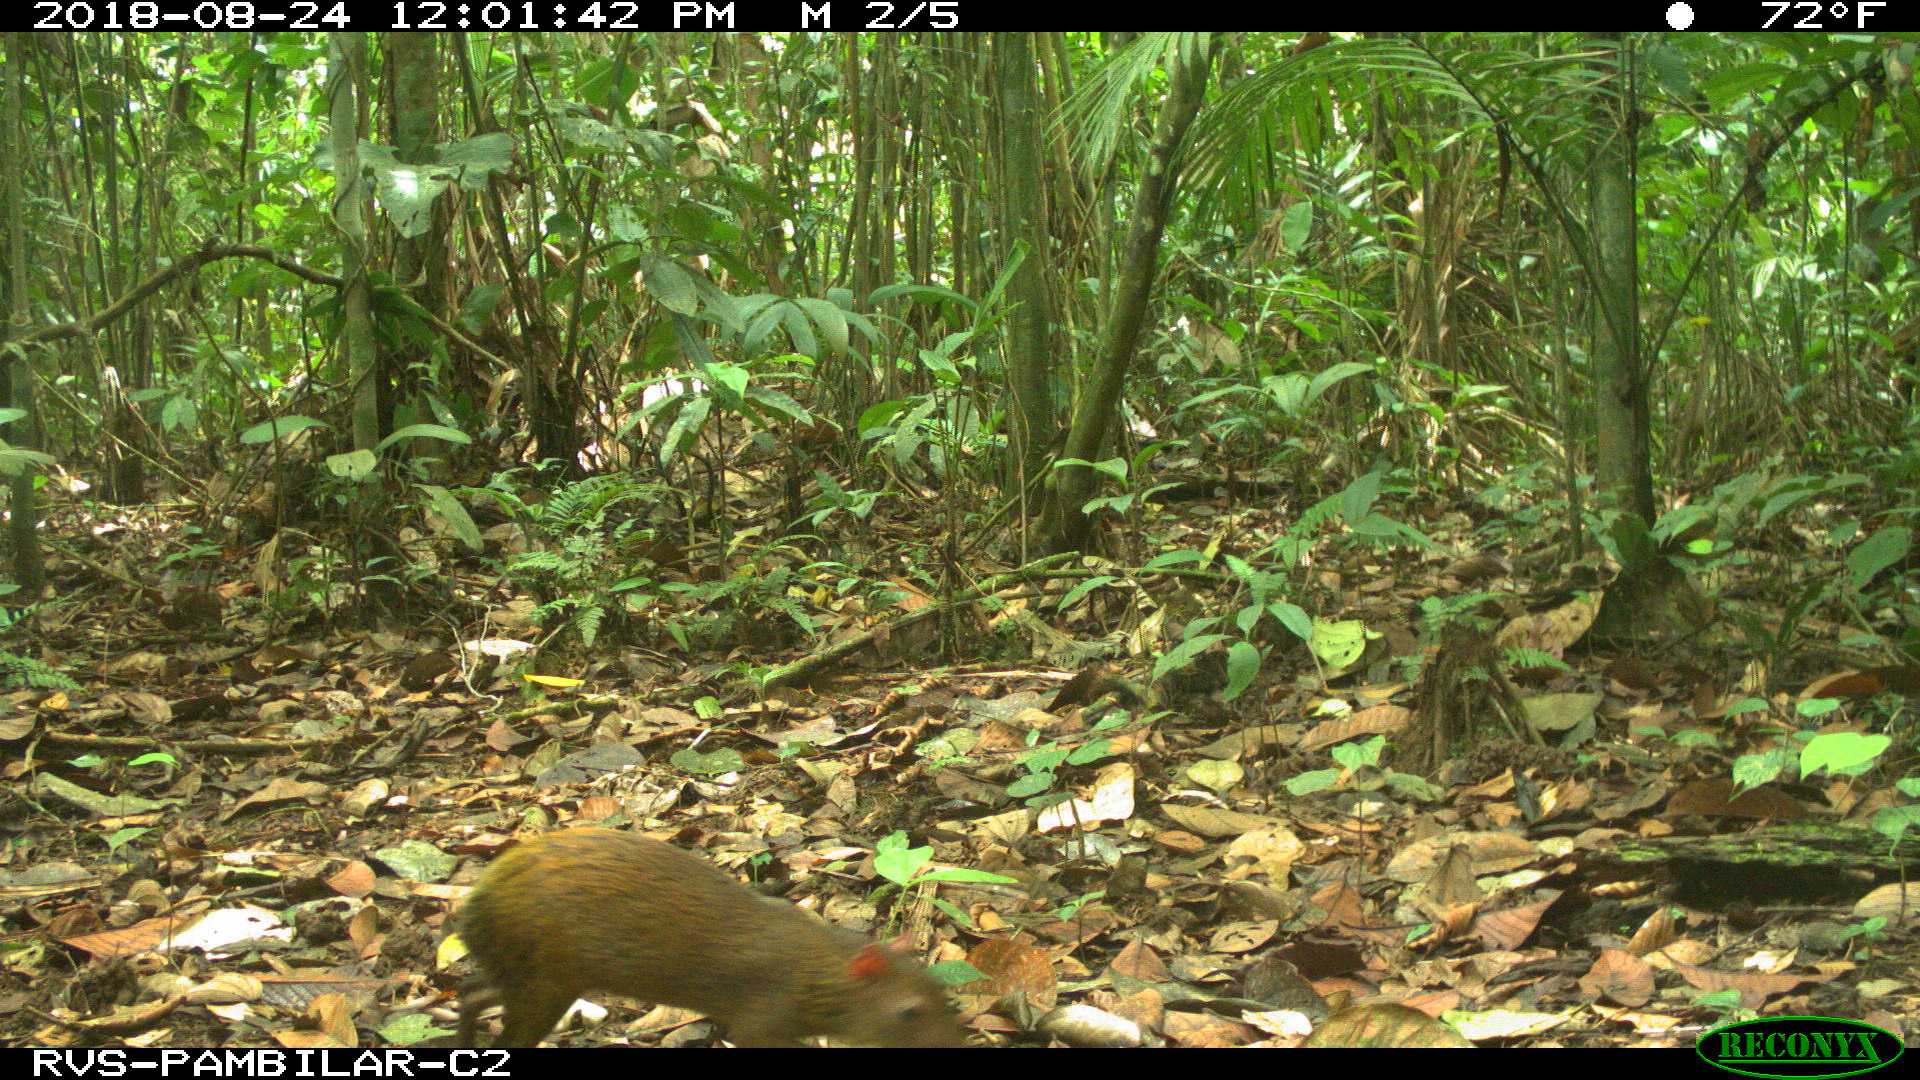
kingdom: Animalia
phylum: Chordata
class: Mammalia
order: Rodentia
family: Dasyproctidae
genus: Dasyprocta
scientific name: Dasyprocta punctata
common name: Central american agouti
